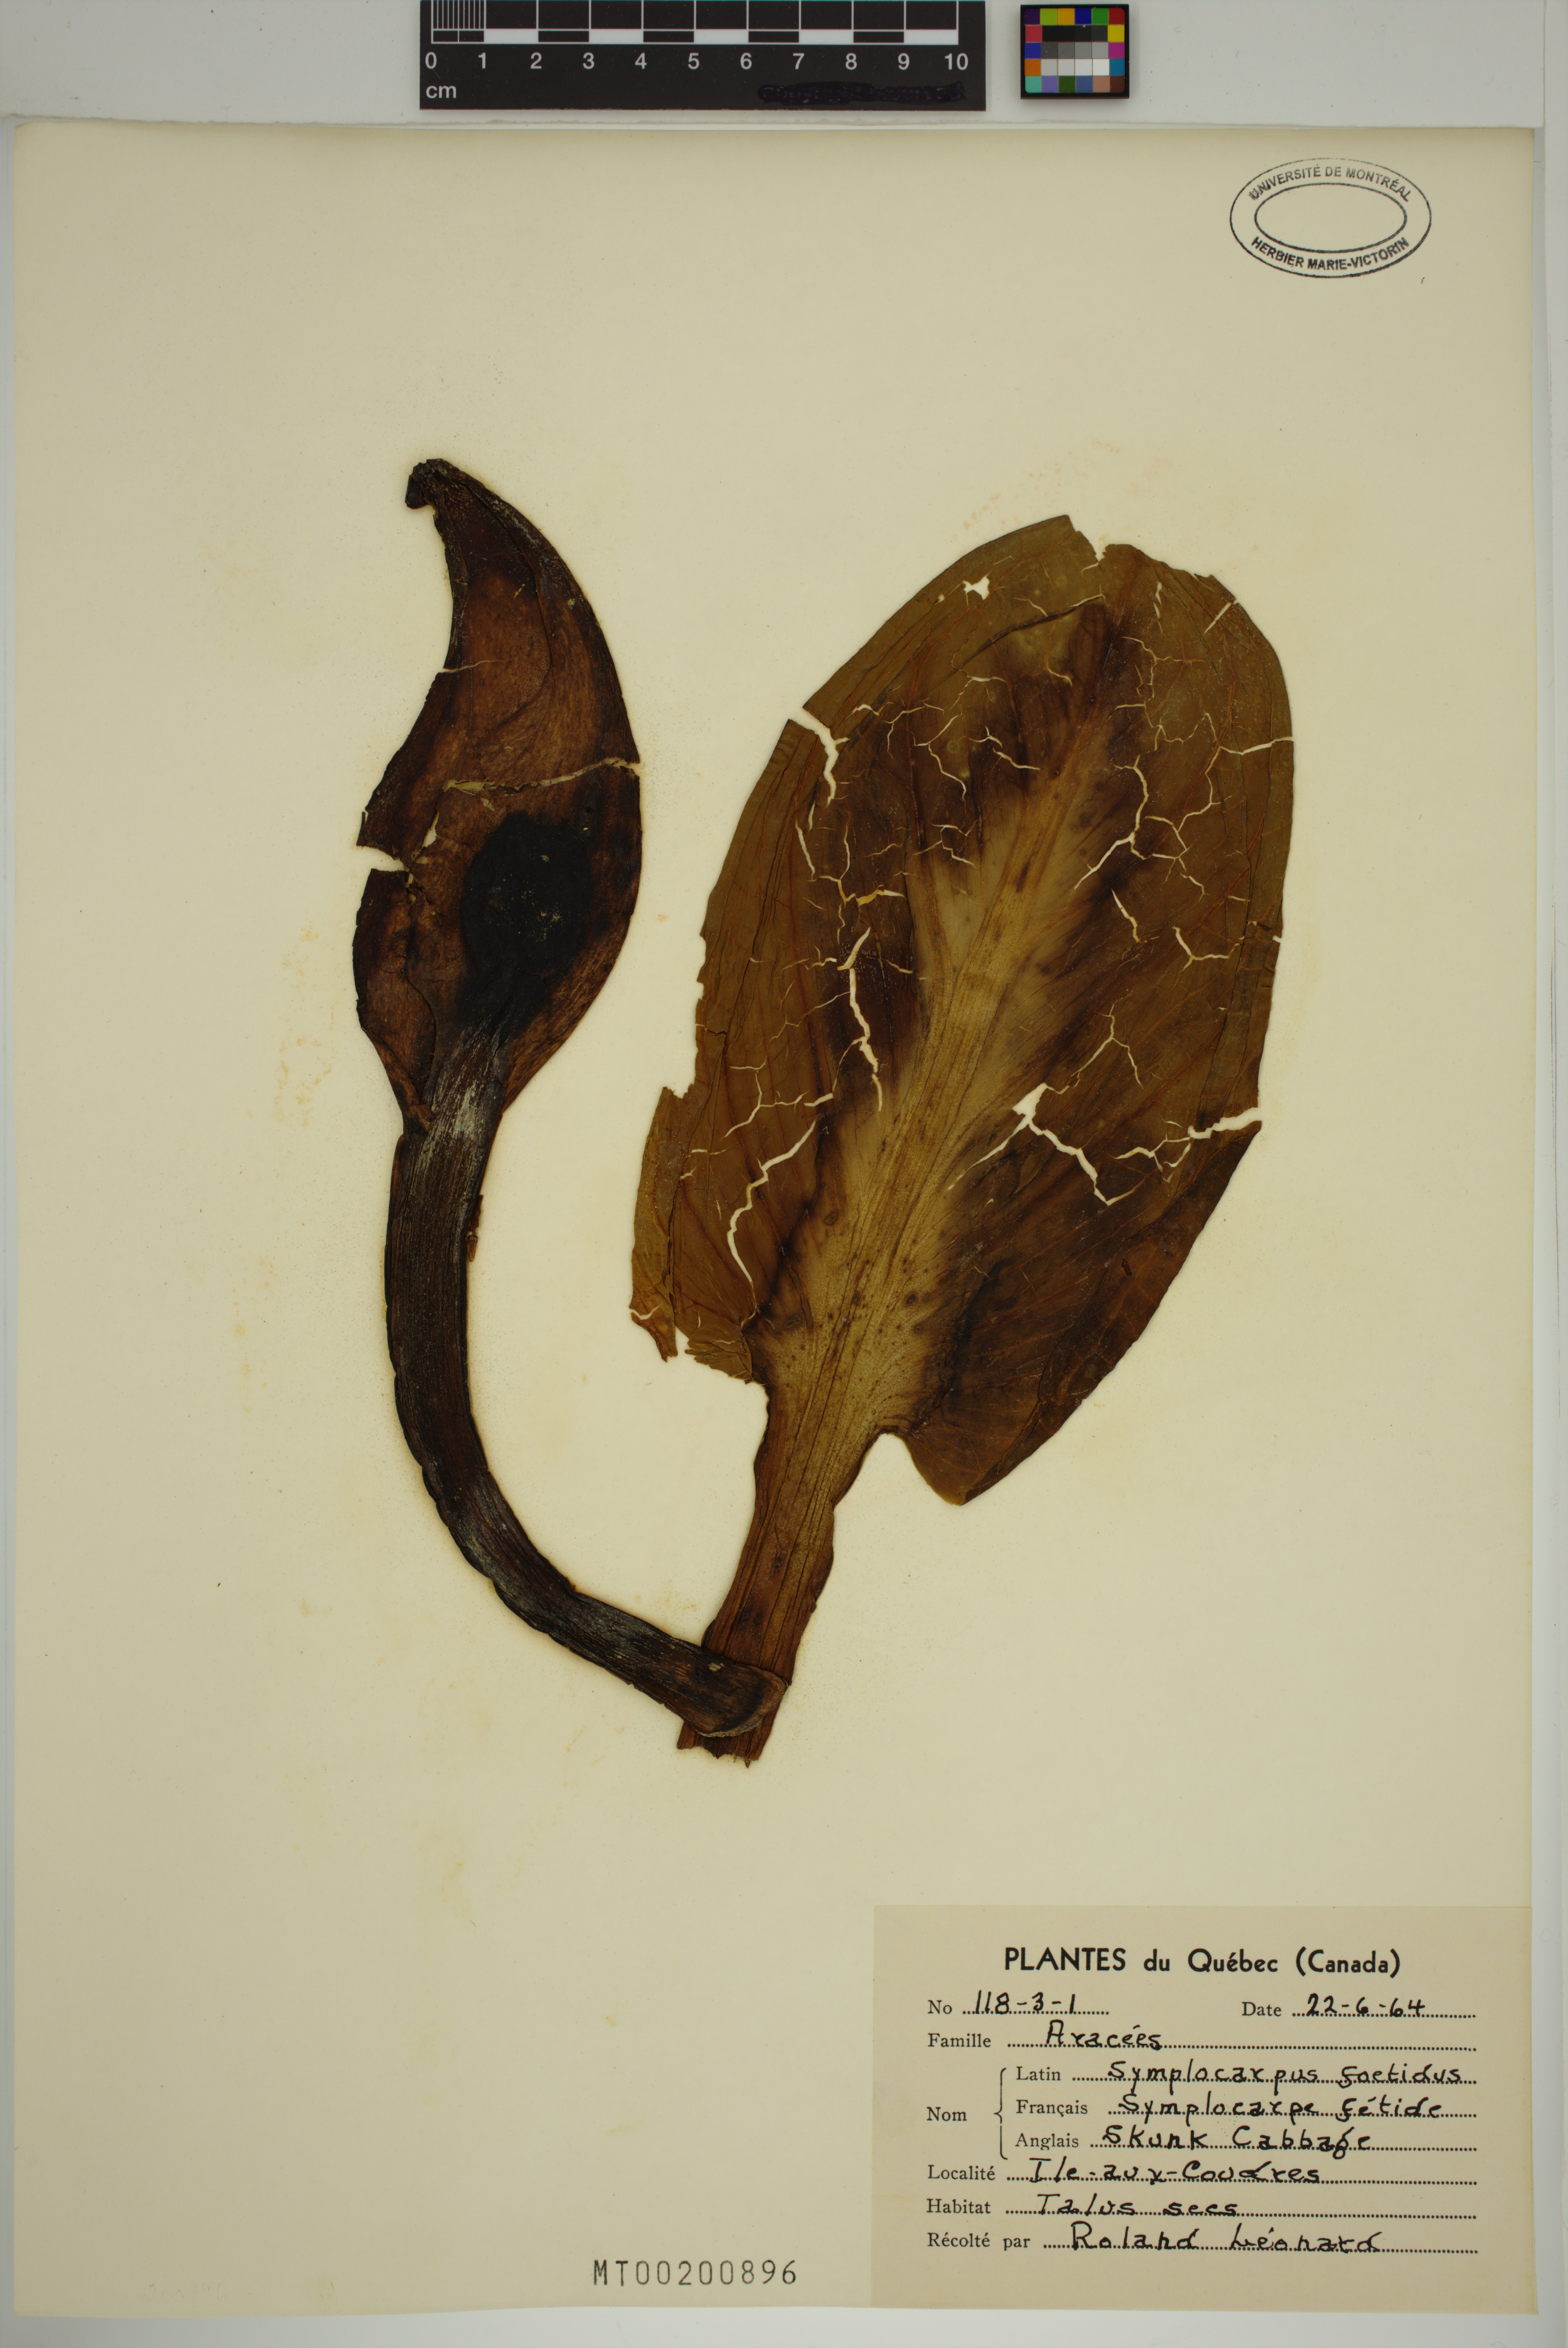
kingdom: Plantae
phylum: Tracheophyta
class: Liliopsida
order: Alismatales
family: Araceae
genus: Symplocarpus
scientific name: Symplocarpus foetidus
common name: Eastern skunk cabbage
